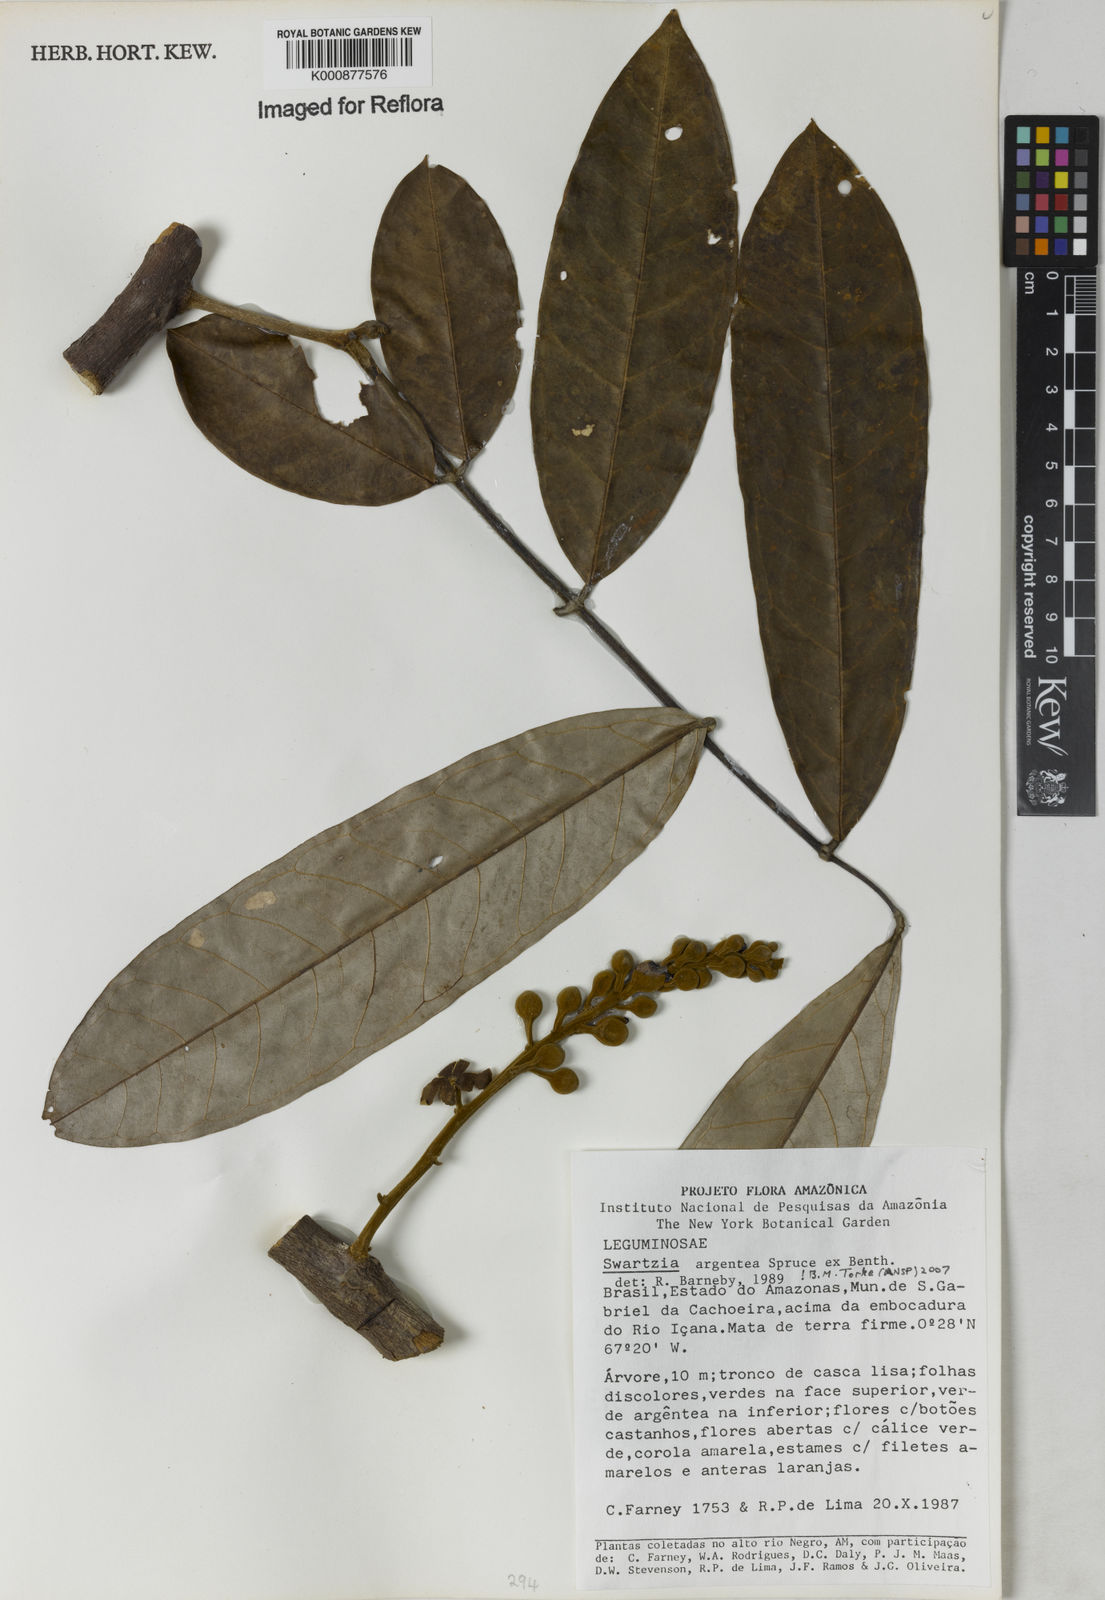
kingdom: Plantae
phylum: Tracheophyta
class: Magnoliopsida
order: Fabales
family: Fabaceae
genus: Swartzia
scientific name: Swartzia argentea
